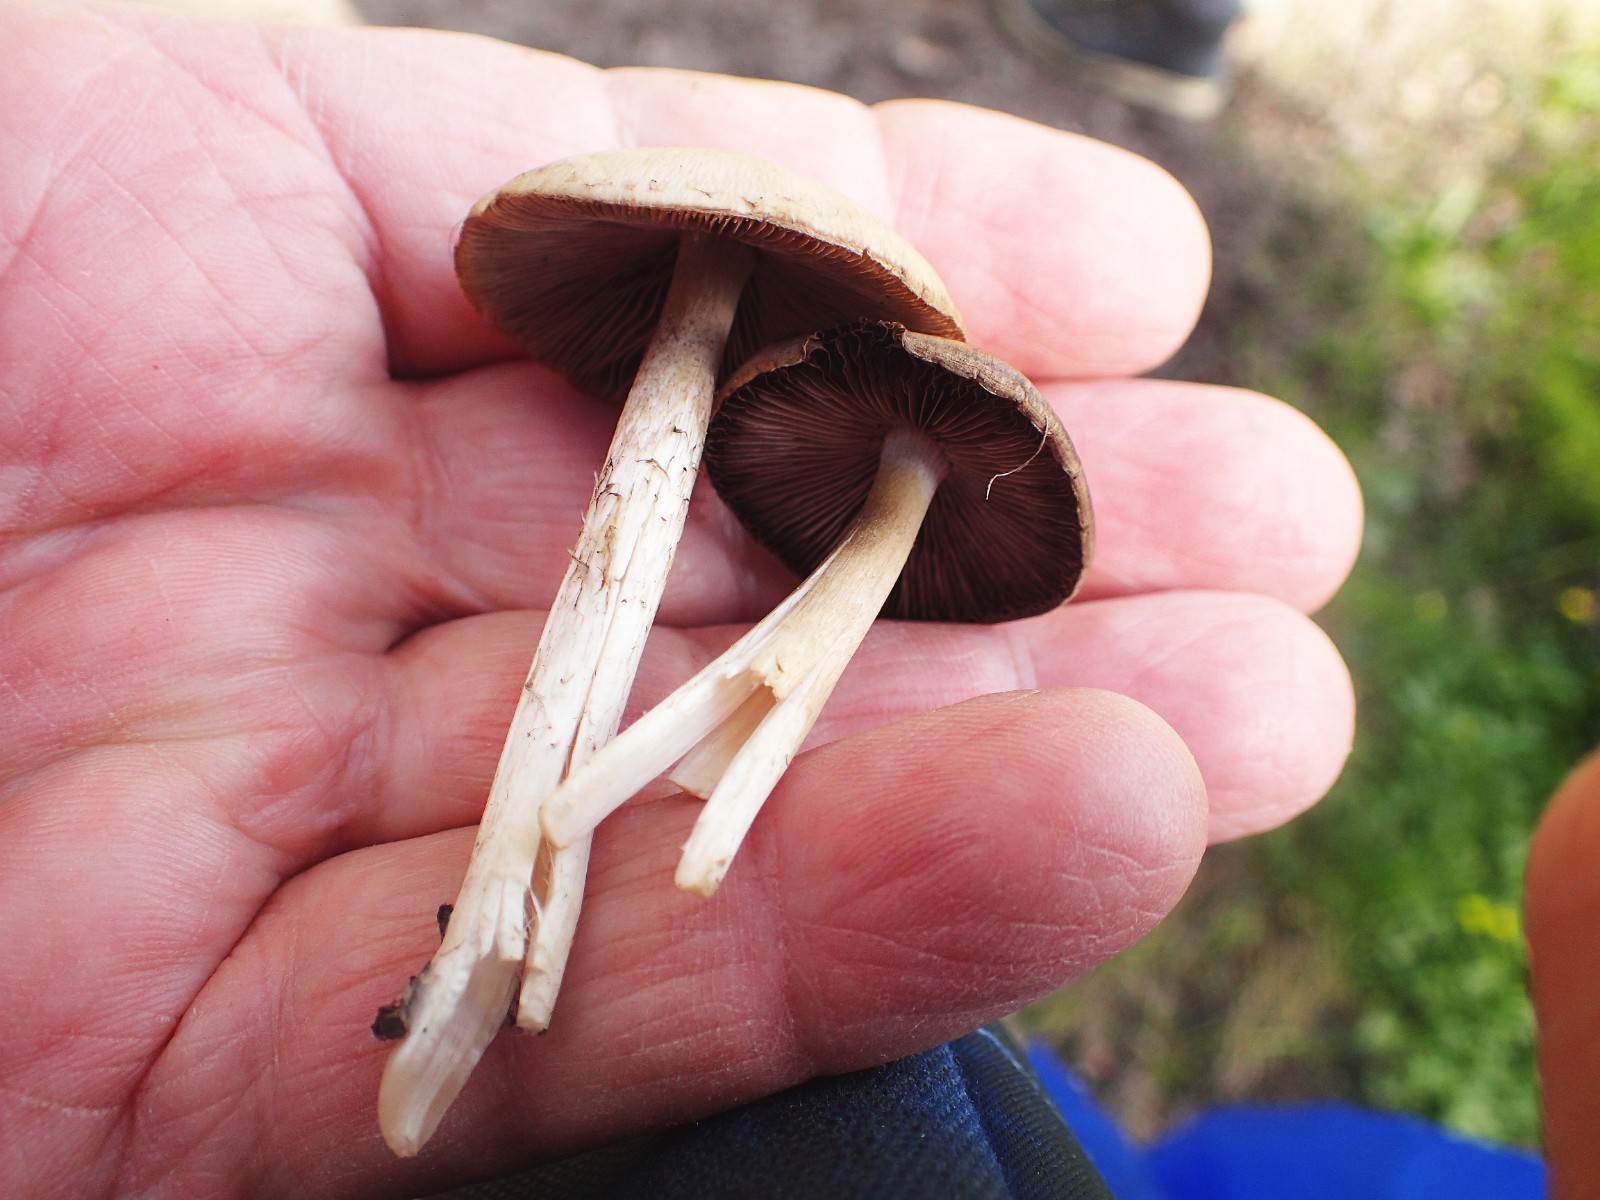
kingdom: Fungi
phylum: Basidiomycota
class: Agaricomycetes
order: Agaricales
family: Psathyrellaceae
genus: Psathyrella
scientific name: Psathyrella spadiceogrisea
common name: gråbrun mørkhat
